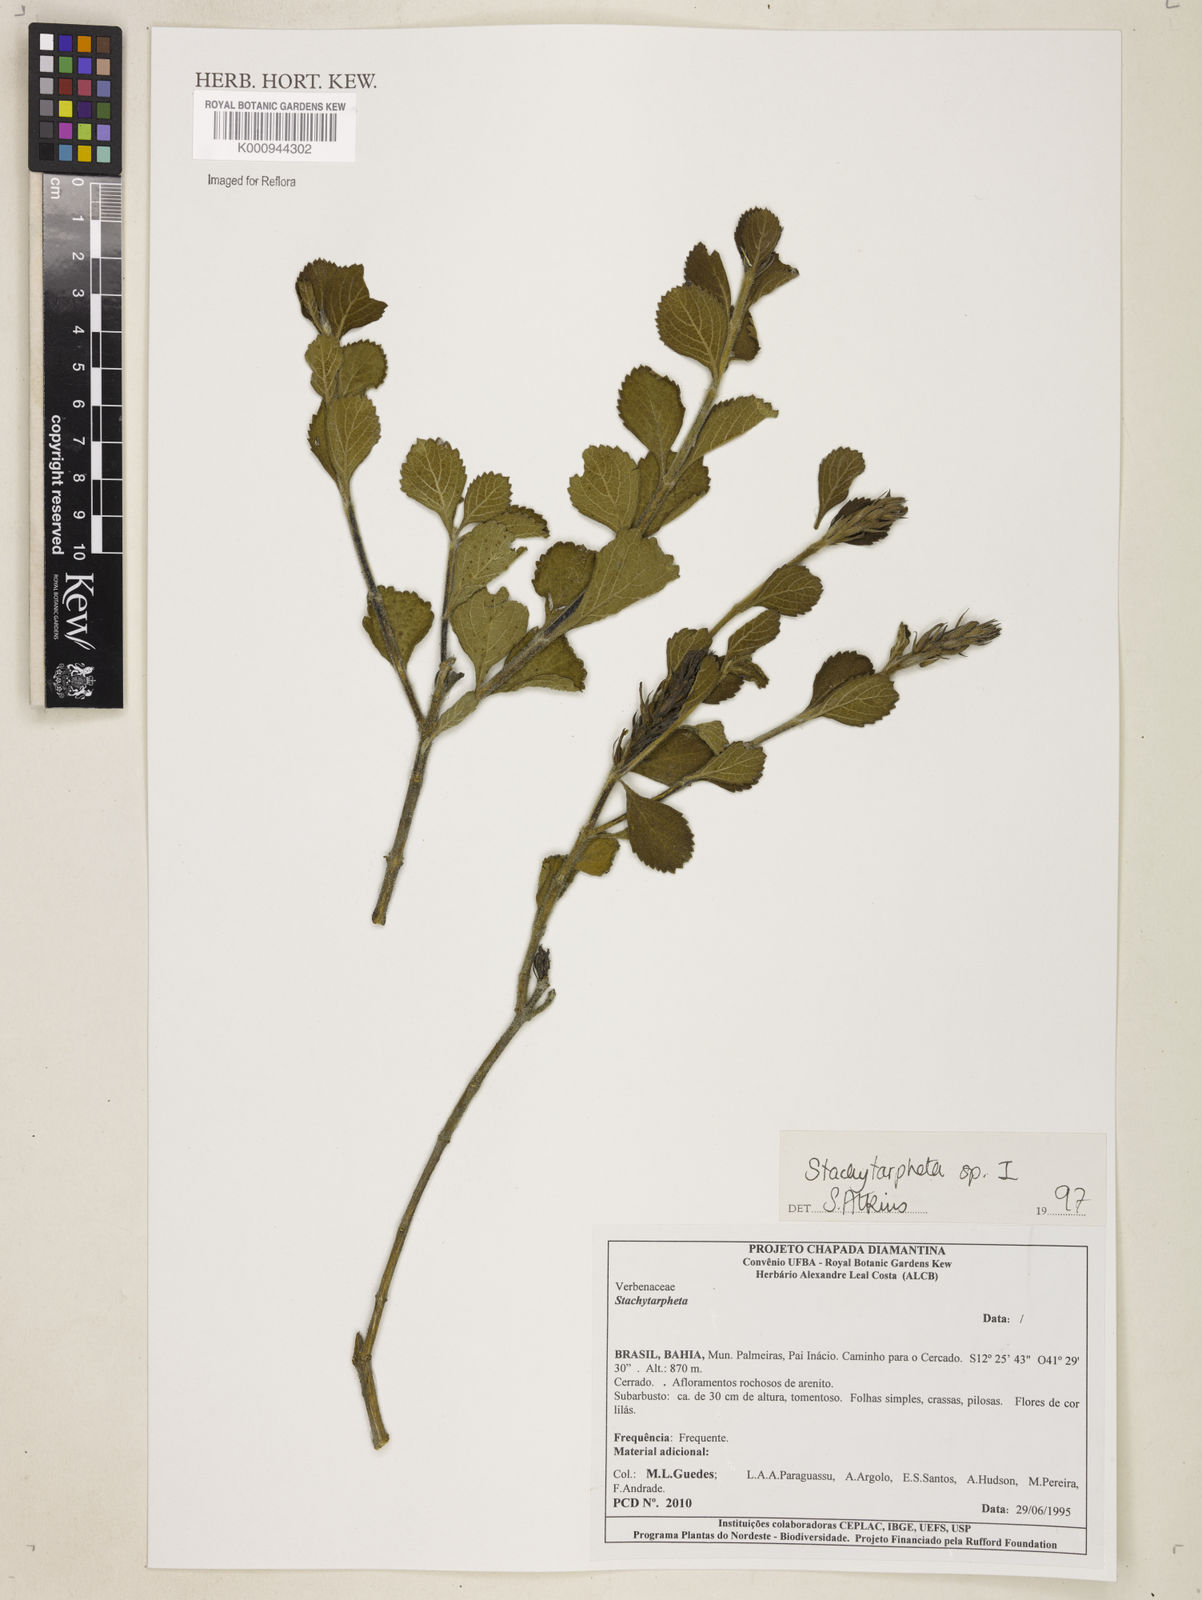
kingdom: Plantae
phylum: Tracheophyta
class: Magnoliopsida
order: Lamiales
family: Verbenaceae
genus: Stachytarpheta
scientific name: Stachytarpheta
